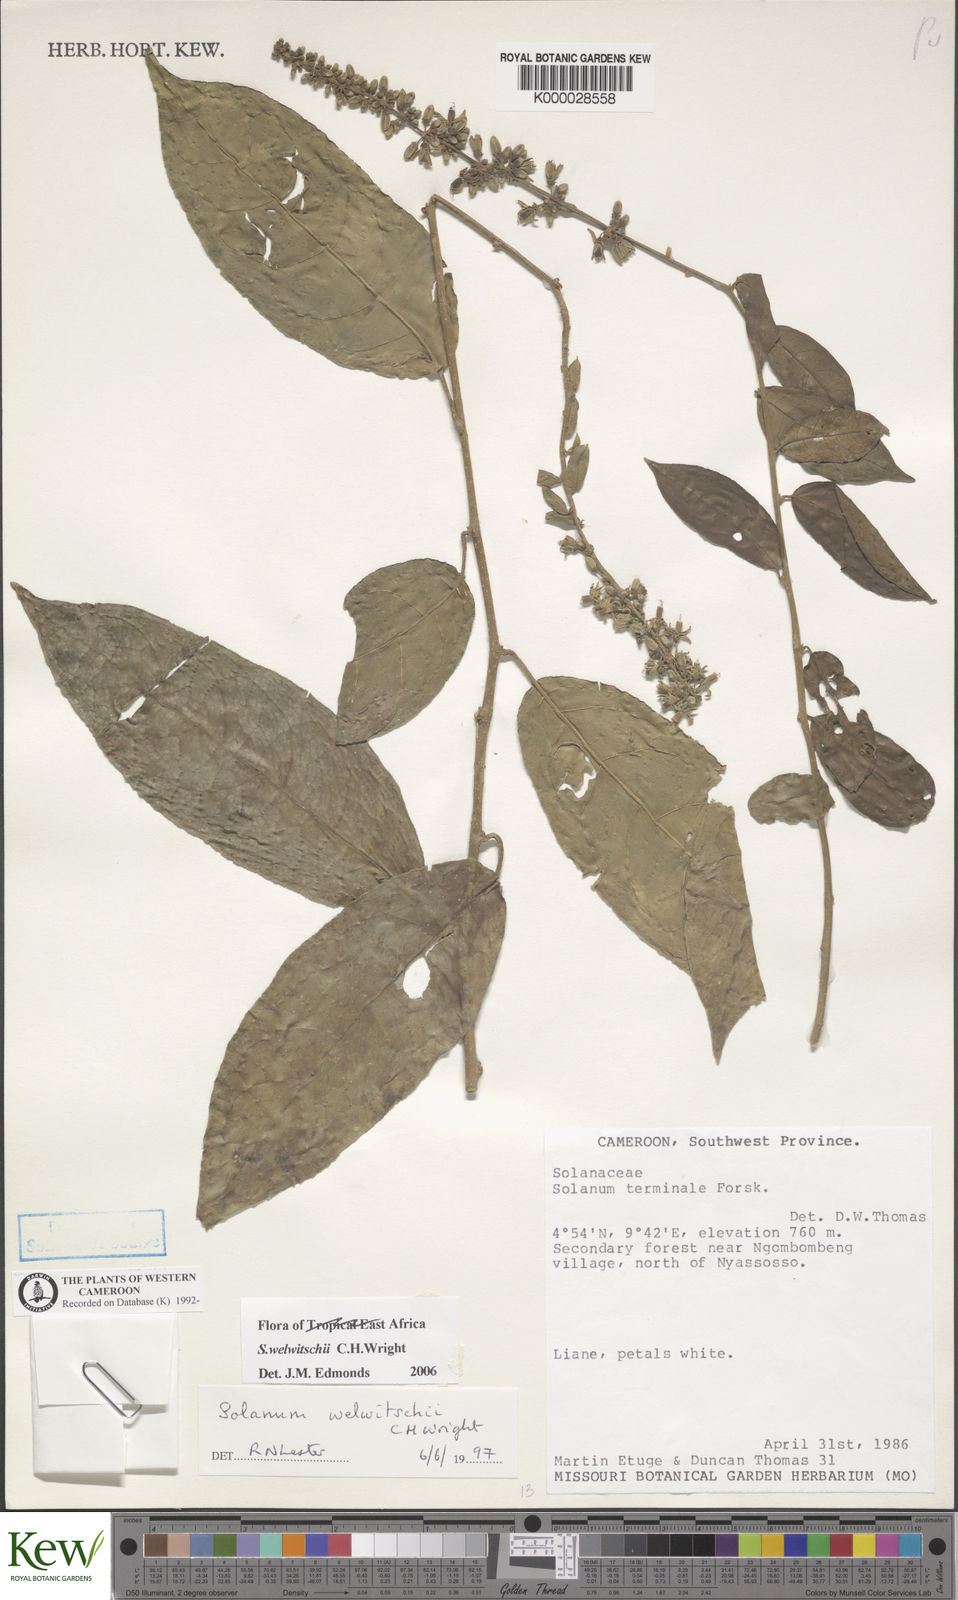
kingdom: Plantae
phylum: Tracheophyta
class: Magnoliopsida
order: Solanales
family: Solanaceae
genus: Solanum
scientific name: Solanum terminale
